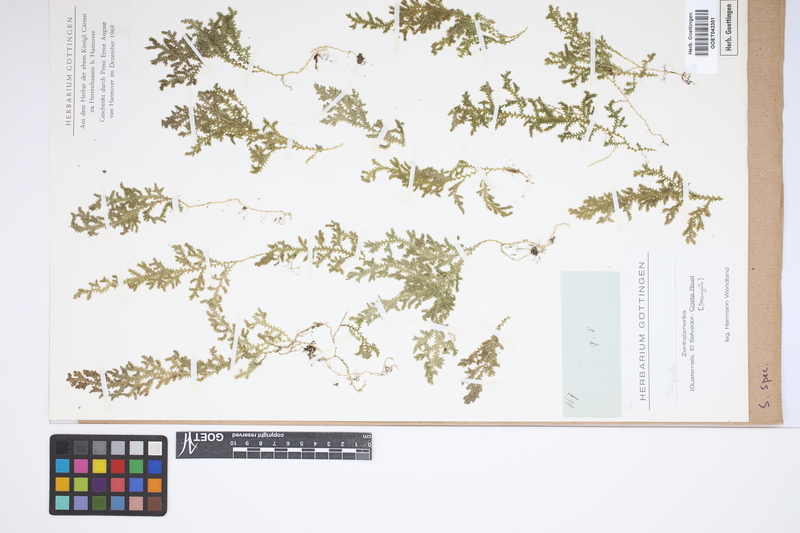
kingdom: Plantae
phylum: Tracheophyta
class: Lycopodiopsida
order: Selaginellales
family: Selaginellaceae
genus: Selaginella
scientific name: Selaginella
